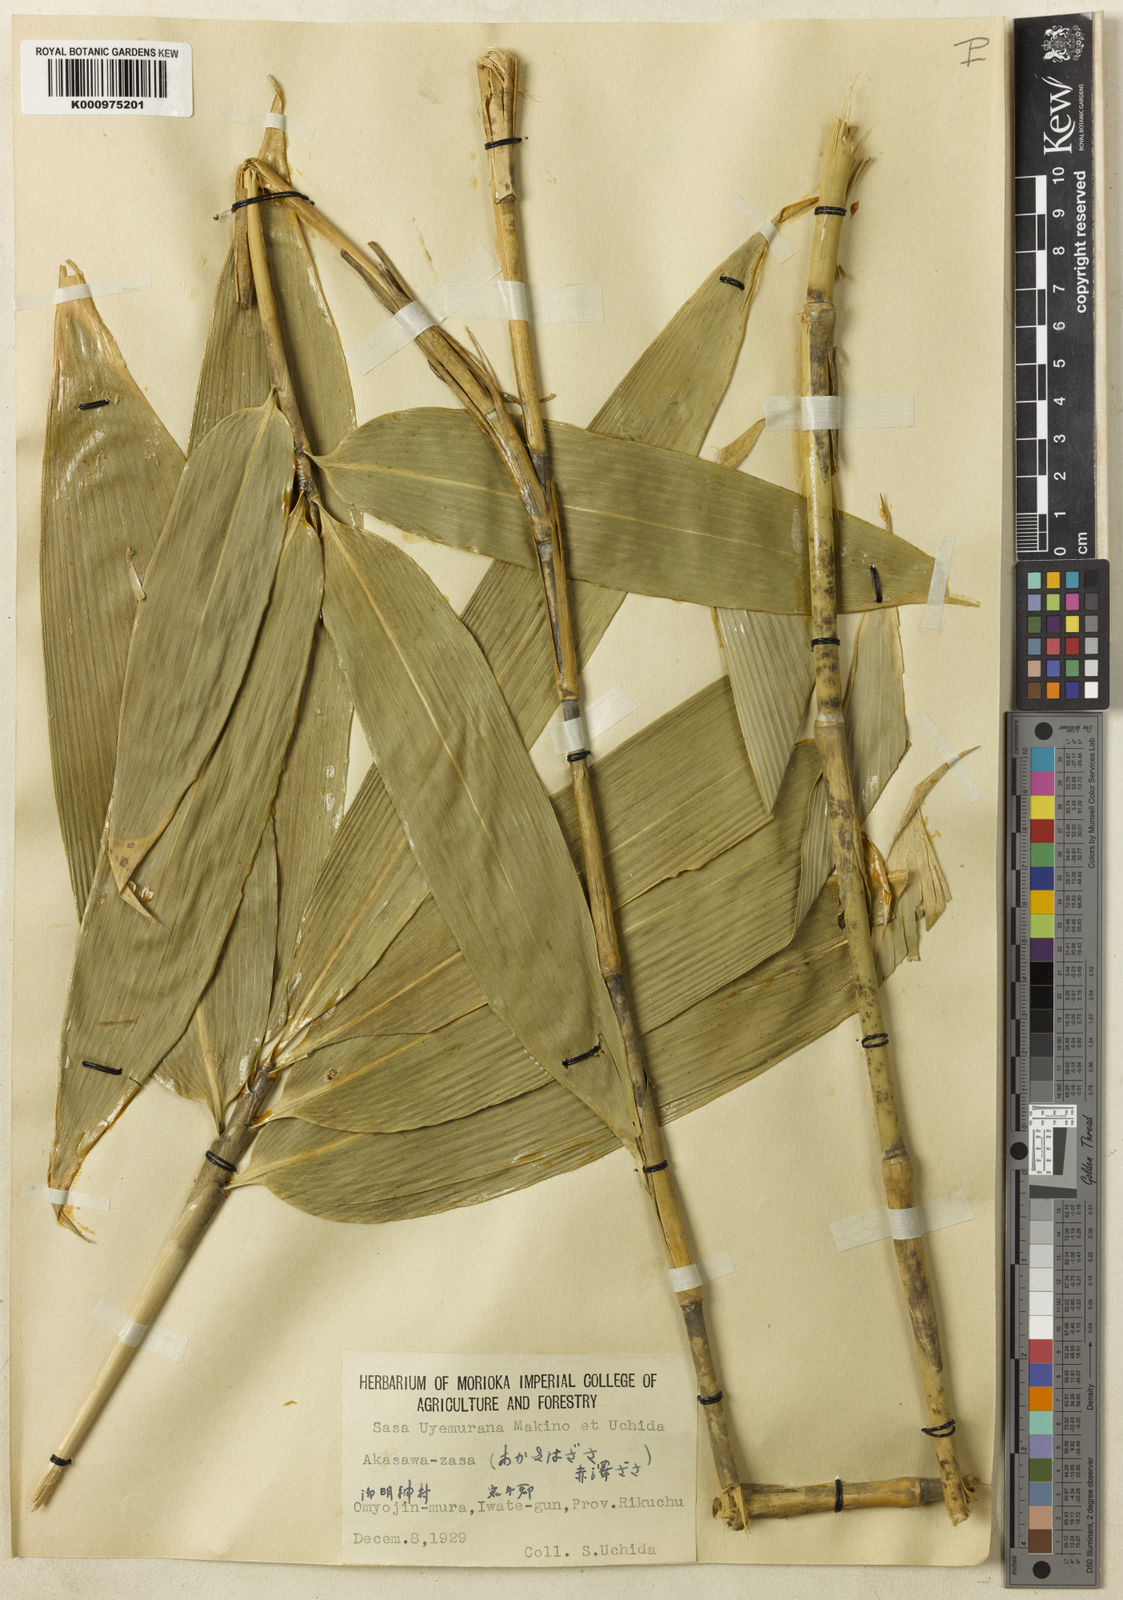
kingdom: Plantae
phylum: Tracheophyta
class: Liliopsida
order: Poales
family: Poaceae
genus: Sasa
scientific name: Sasa tatewakiana
